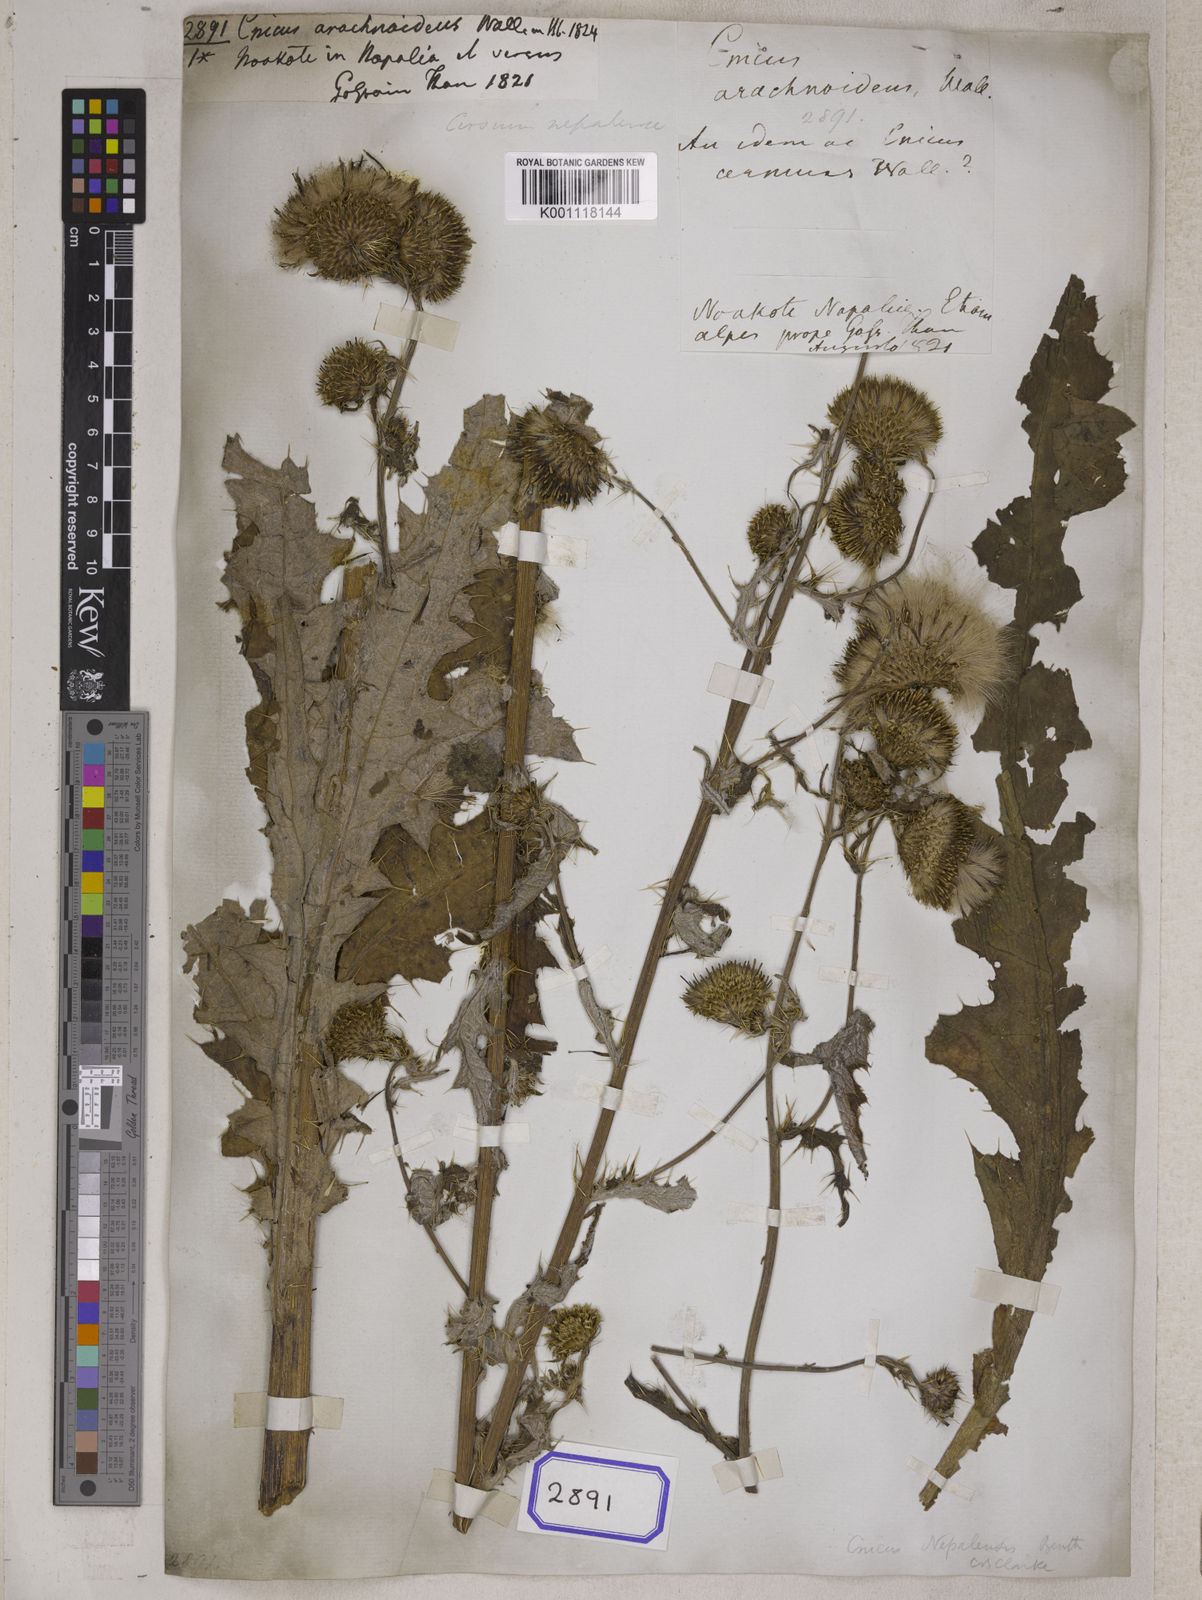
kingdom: Plantae
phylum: Tracheophyta
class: Magnoliopsida
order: Asterales
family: Asteraceae
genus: Cirsium
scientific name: Cirsium wallichii
